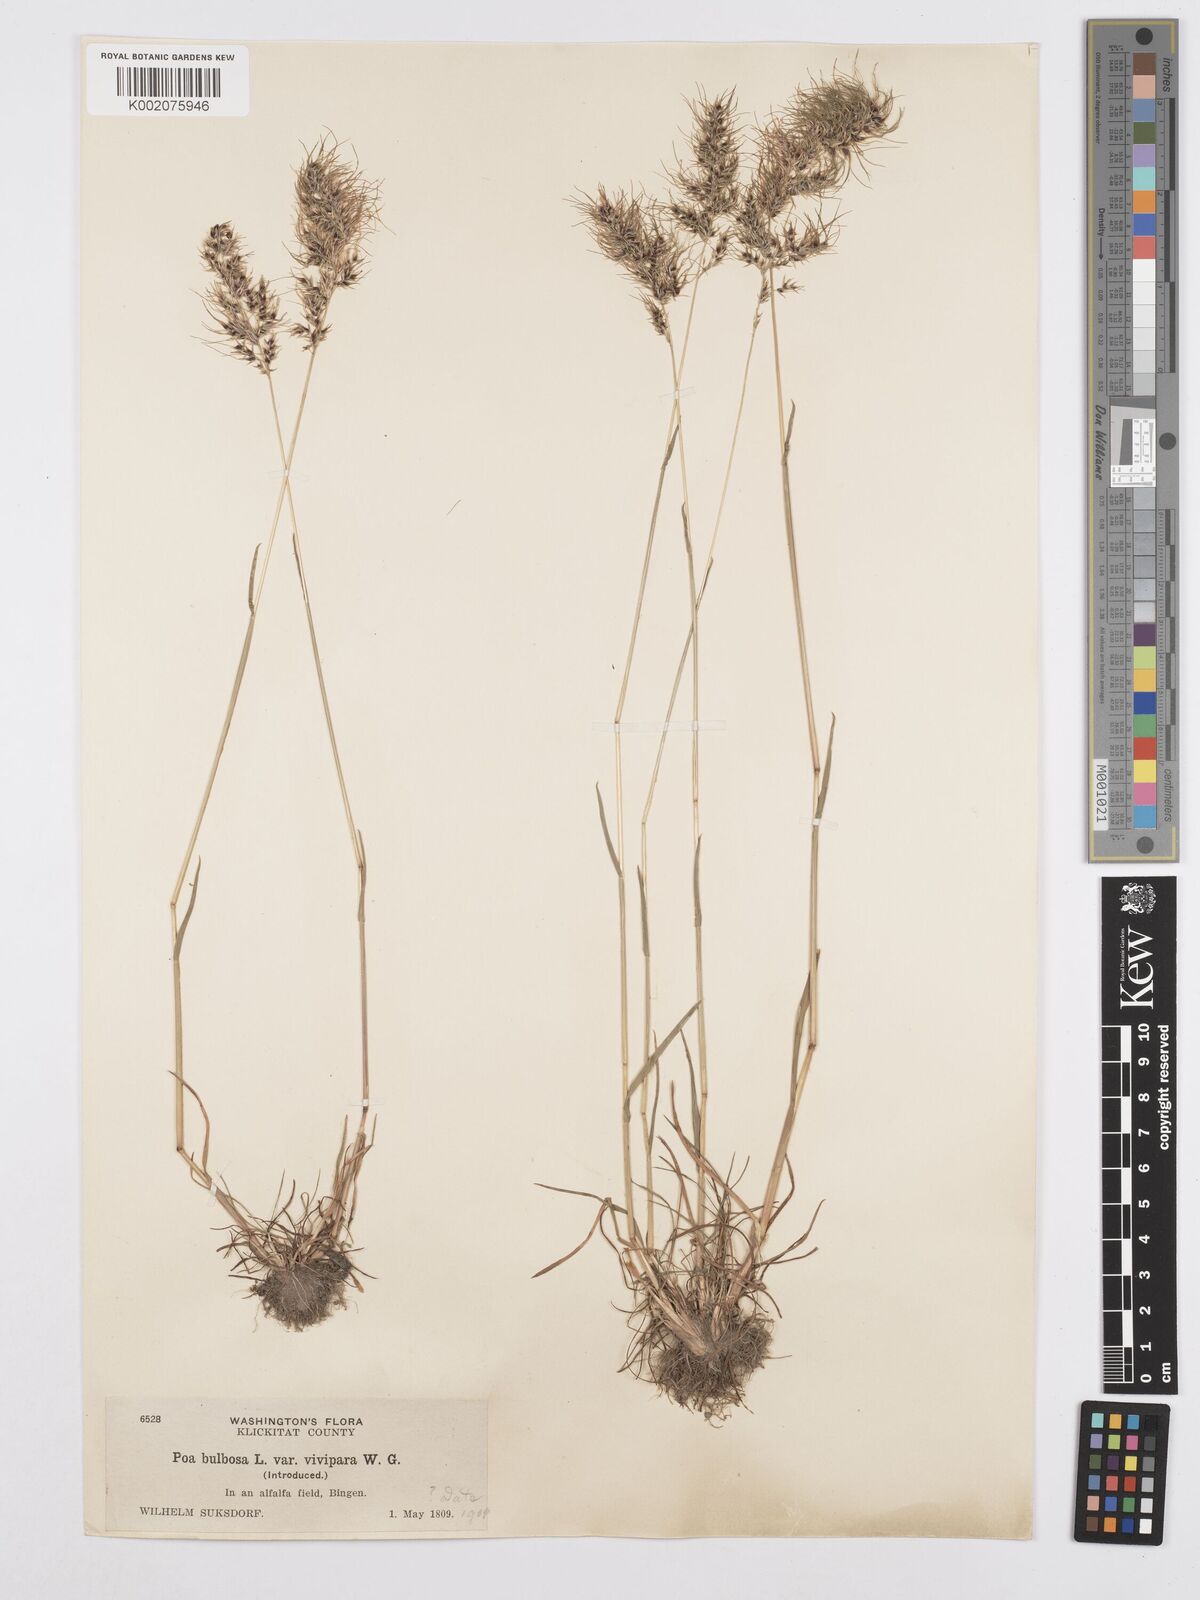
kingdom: Plantae
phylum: Tracheophyta
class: Liliopsida
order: Poales
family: Poaceae
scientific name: Poaceae
